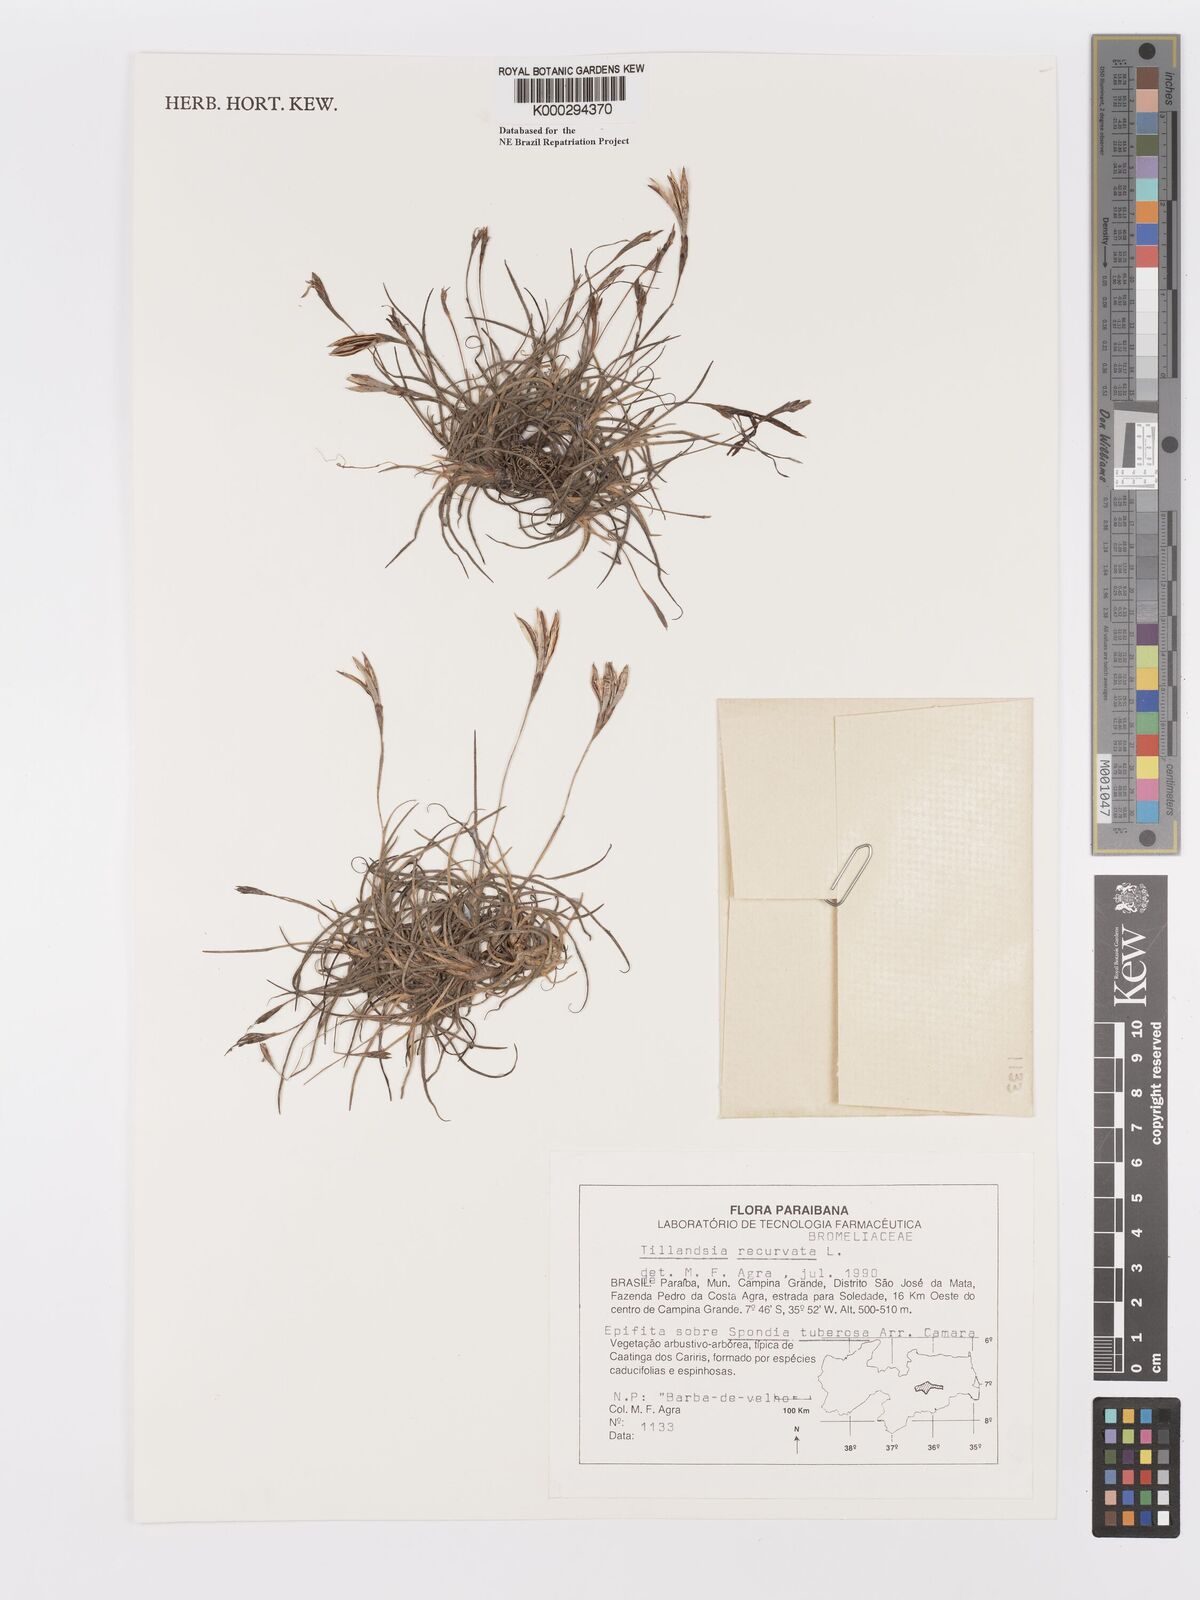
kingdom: Plantae
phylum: Tracheophyta
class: Liliopsida
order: Poales
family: Bromeliaceae
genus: Tillandsia
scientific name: Tillandsia recurvata
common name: Small ballmoss
